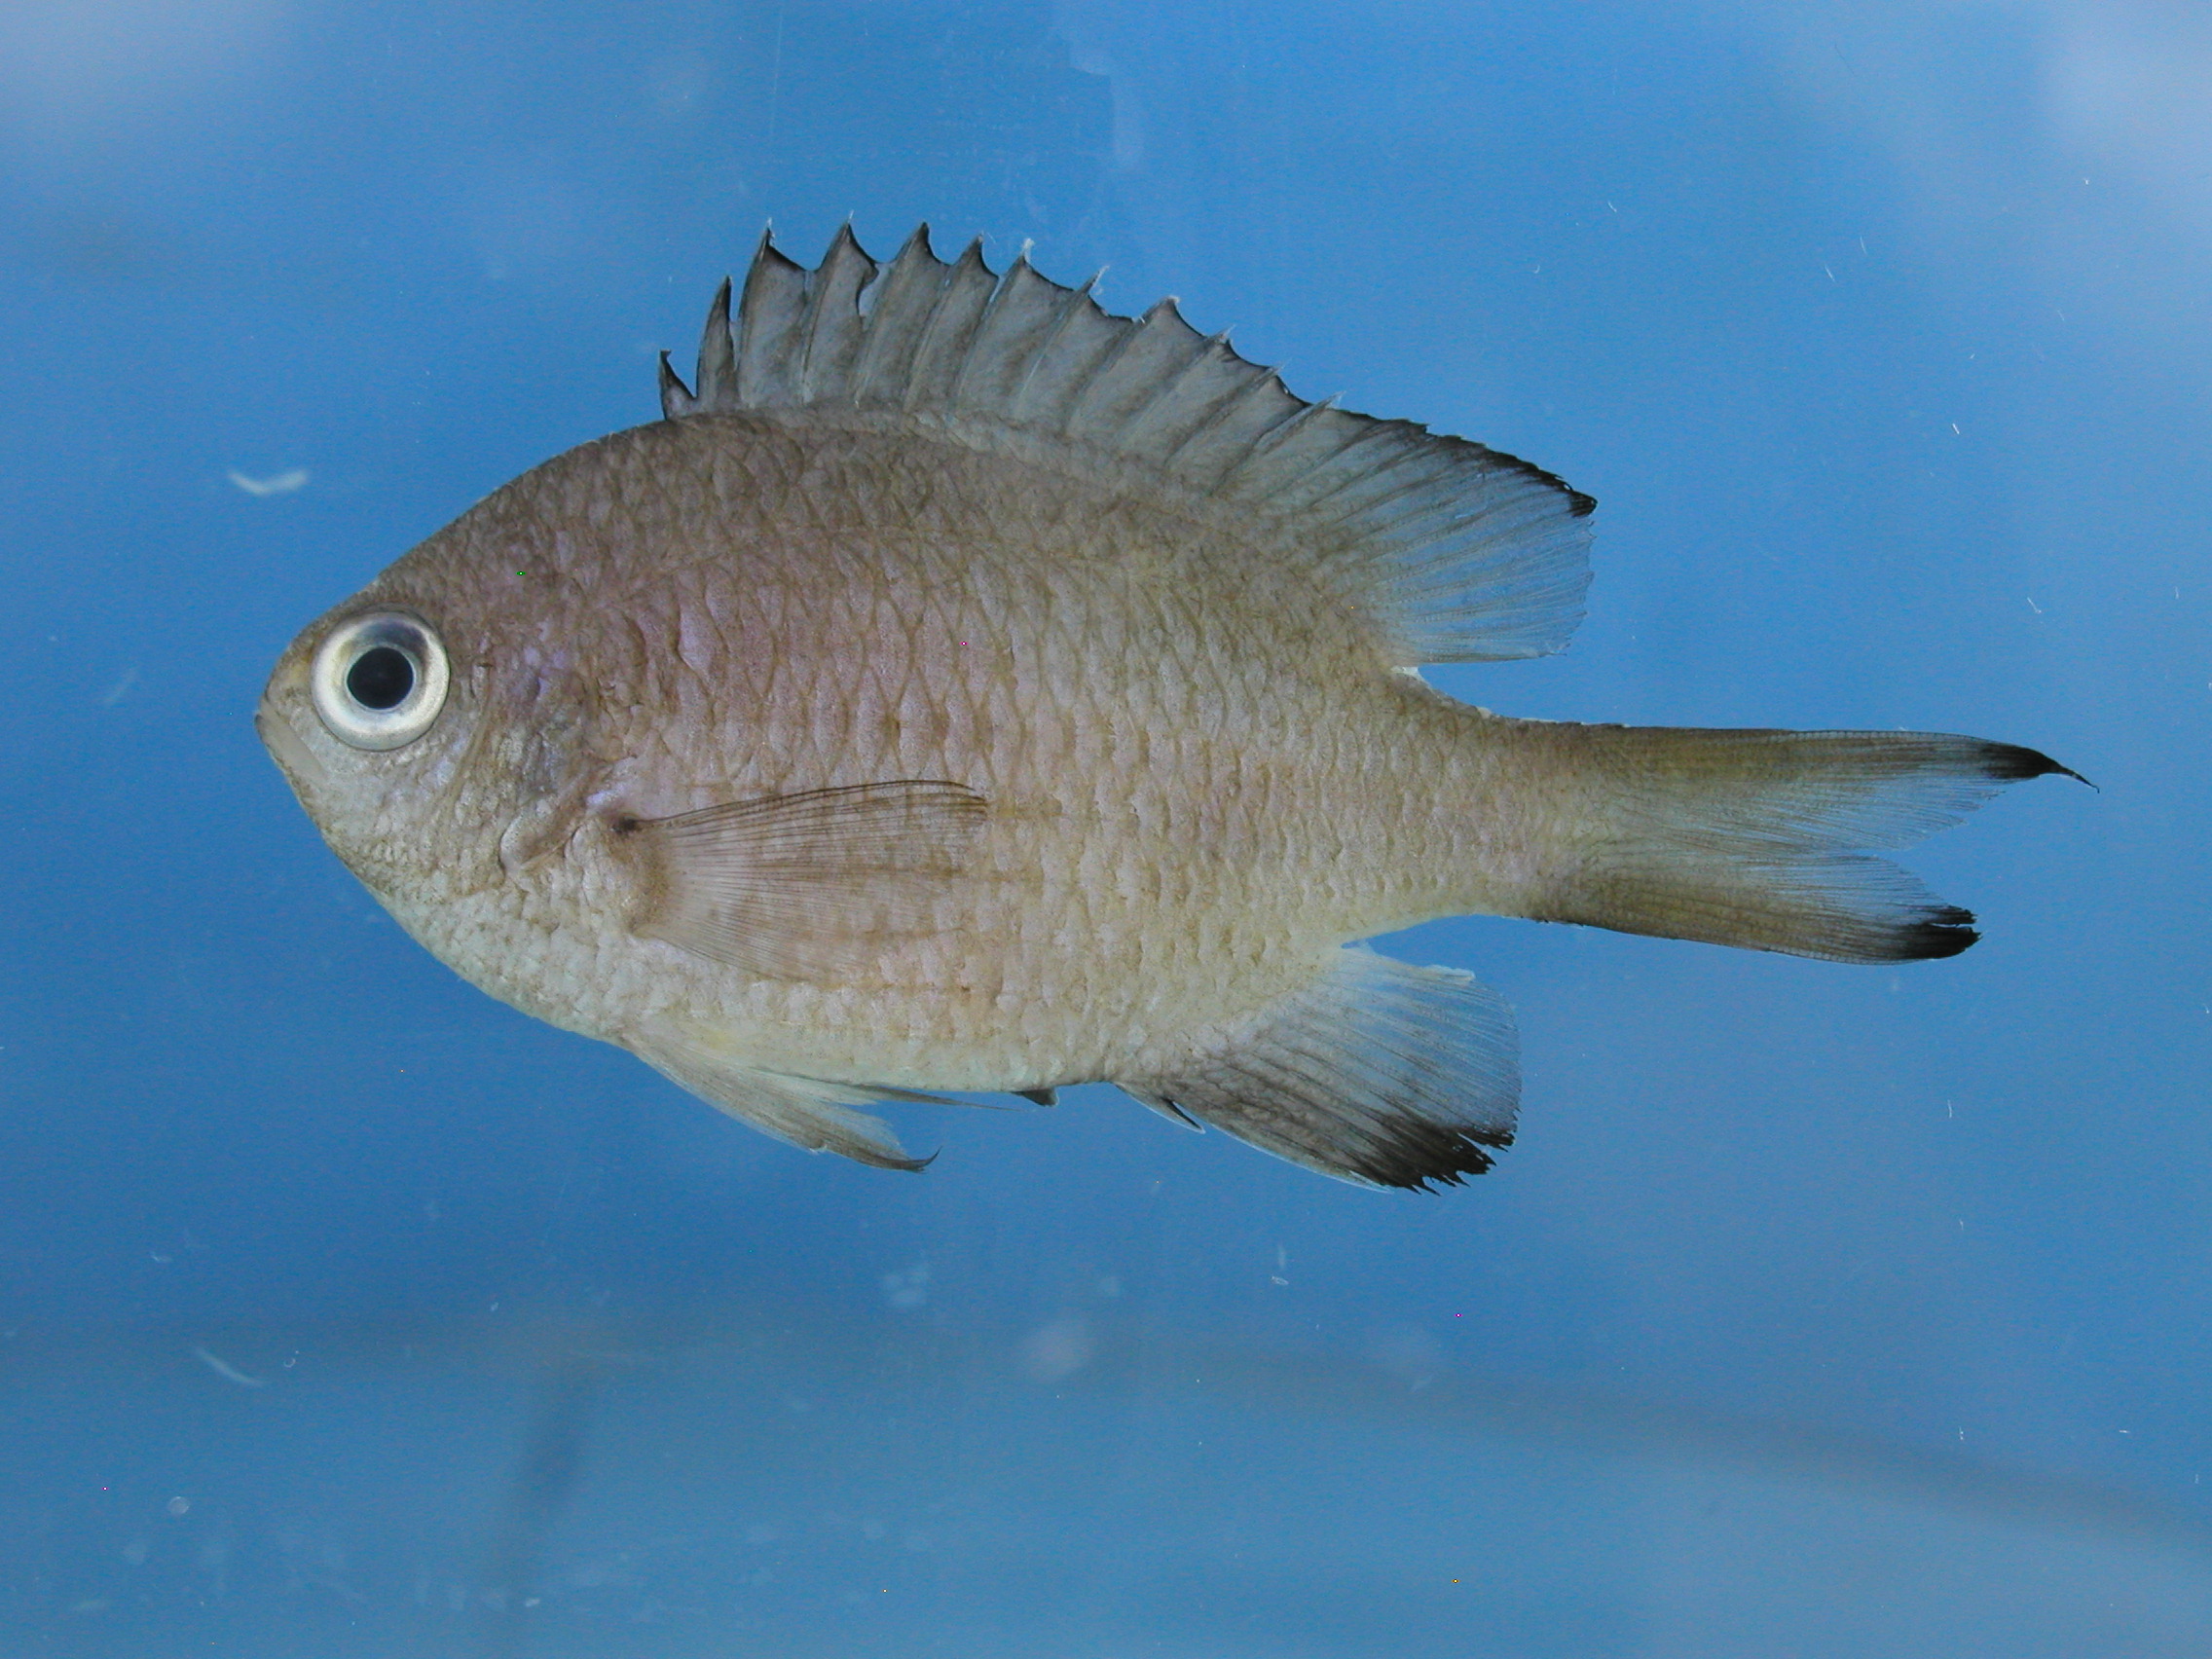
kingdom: Animalia
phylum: Chordata
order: Perciformes
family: Pomacentridae
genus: Chromis
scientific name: Chromis lepidolepis
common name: Scaly chromis
